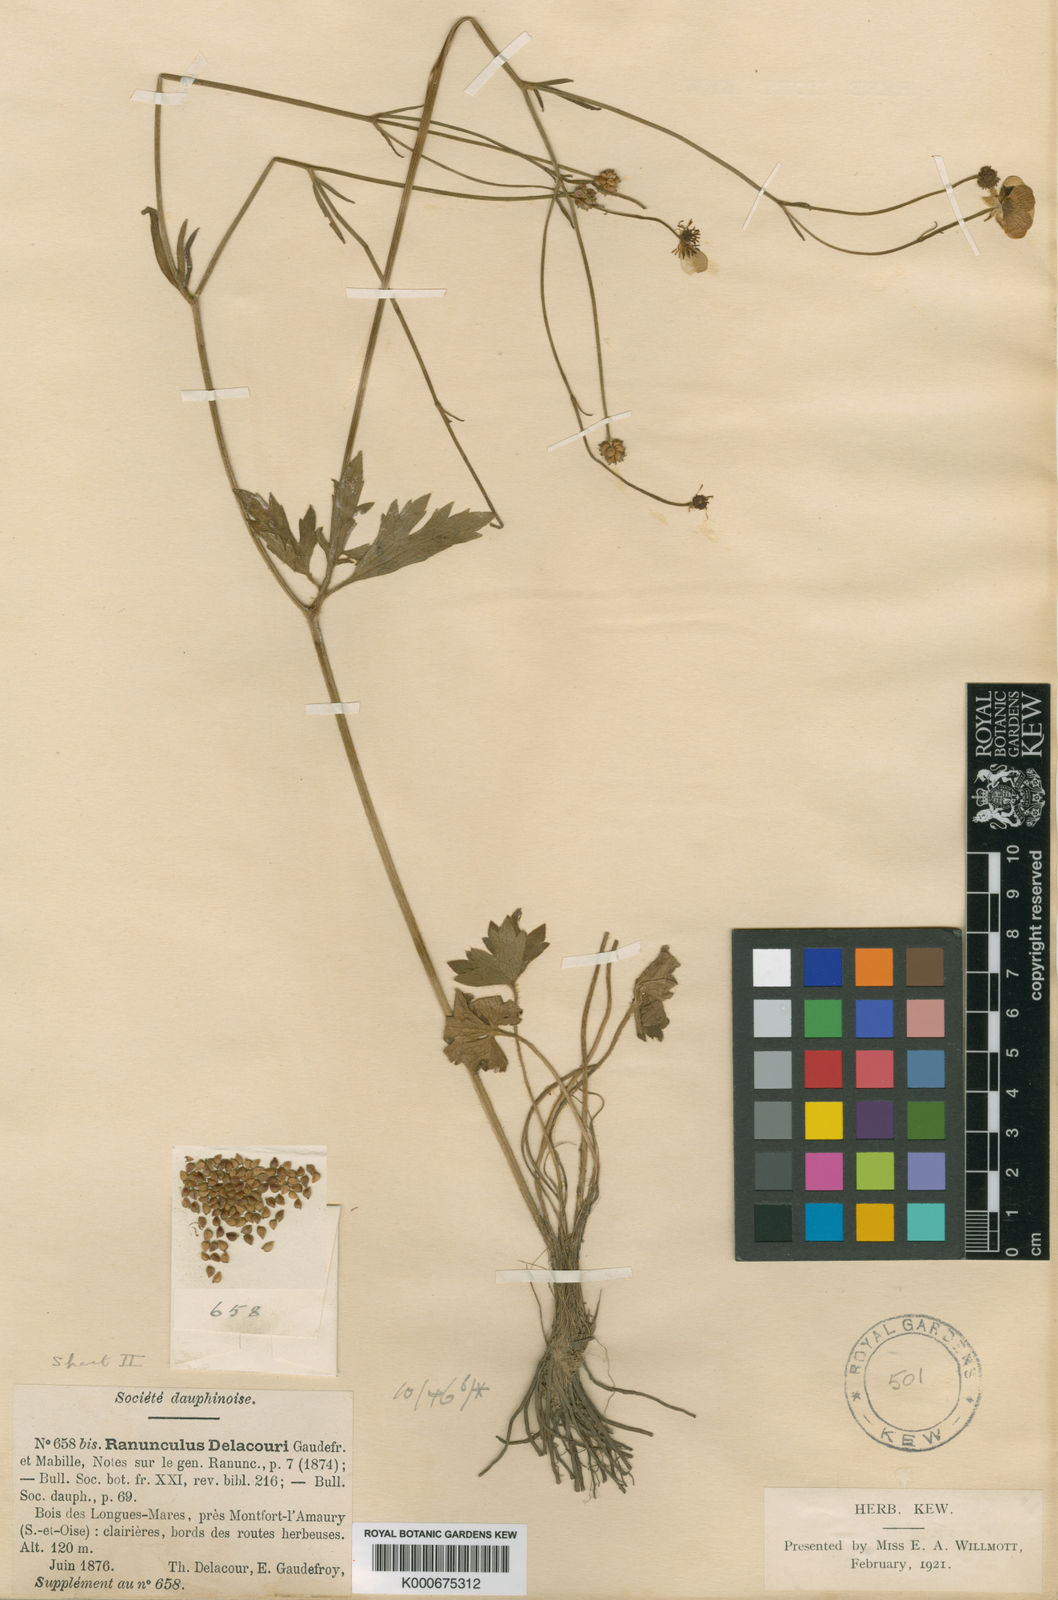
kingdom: Plantae
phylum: Tracheophyta
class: Magnoliopsida
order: Ranunculales
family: Ranunculaceae
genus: Ranunculus
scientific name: Ranunculus polyanthemos
